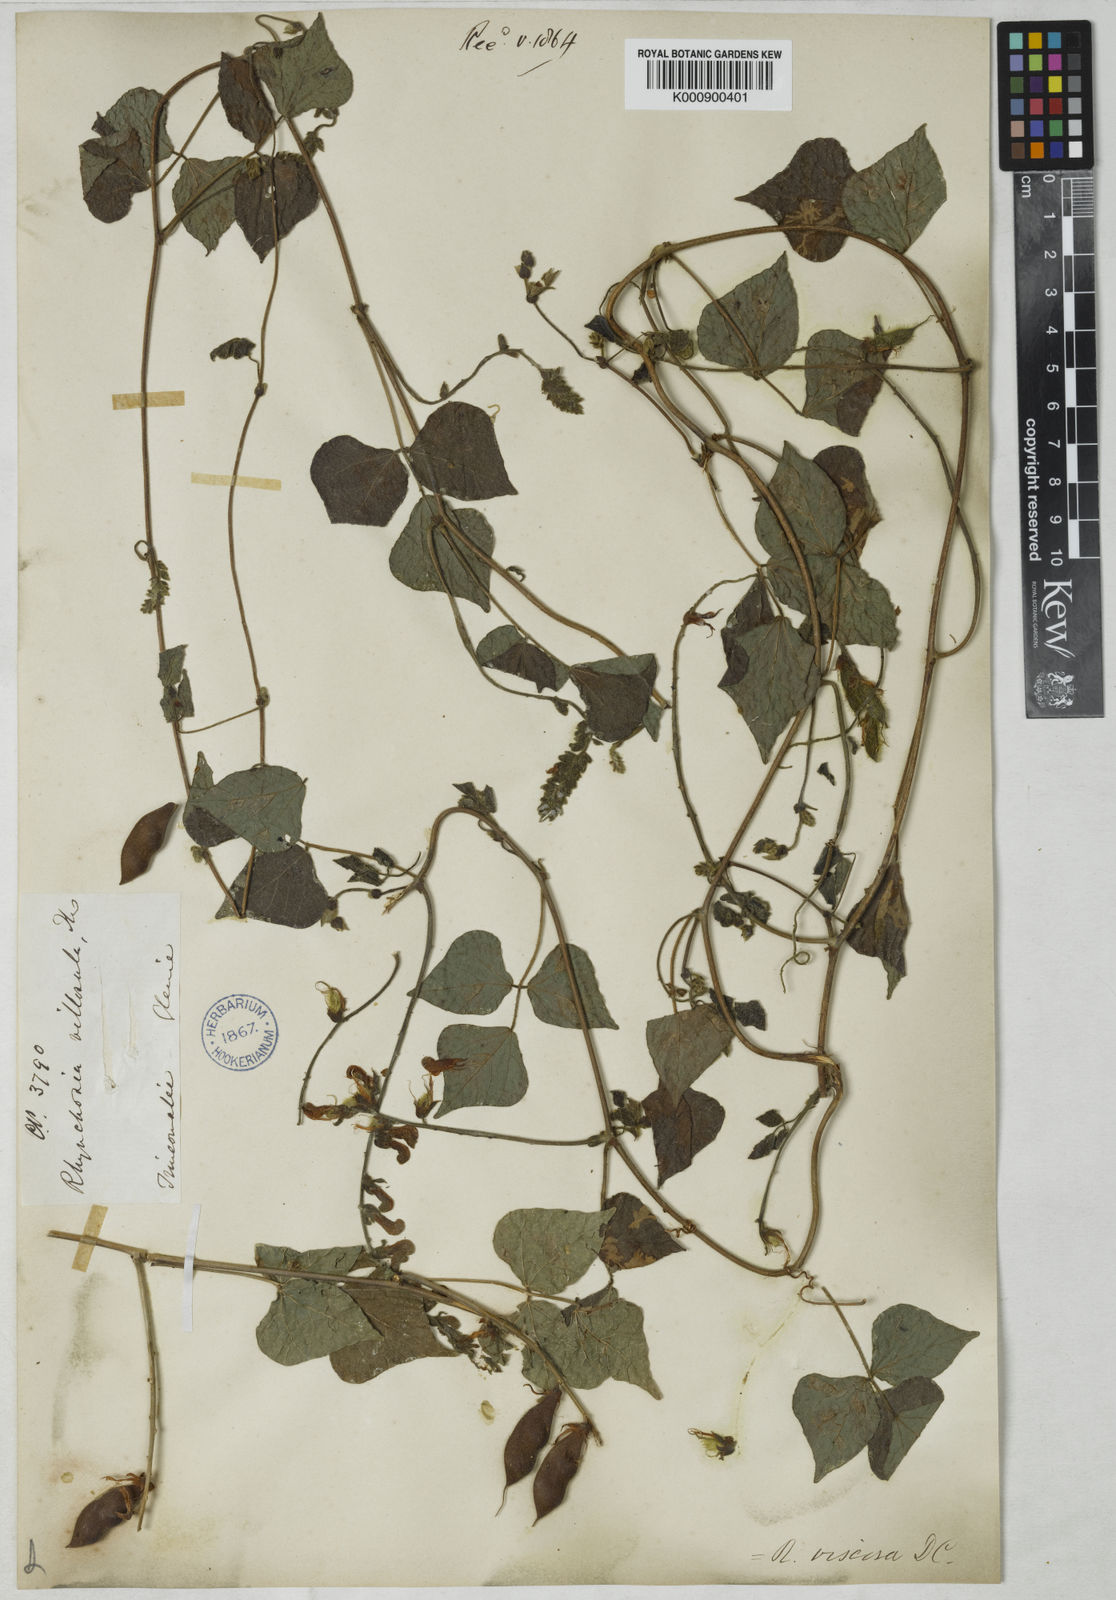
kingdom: Plantae
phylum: Tracheophyta
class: Magnoliopsida
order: Fabales
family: Fabaceae
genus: Rhynchosia
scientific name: Rhynchosia viscosa
